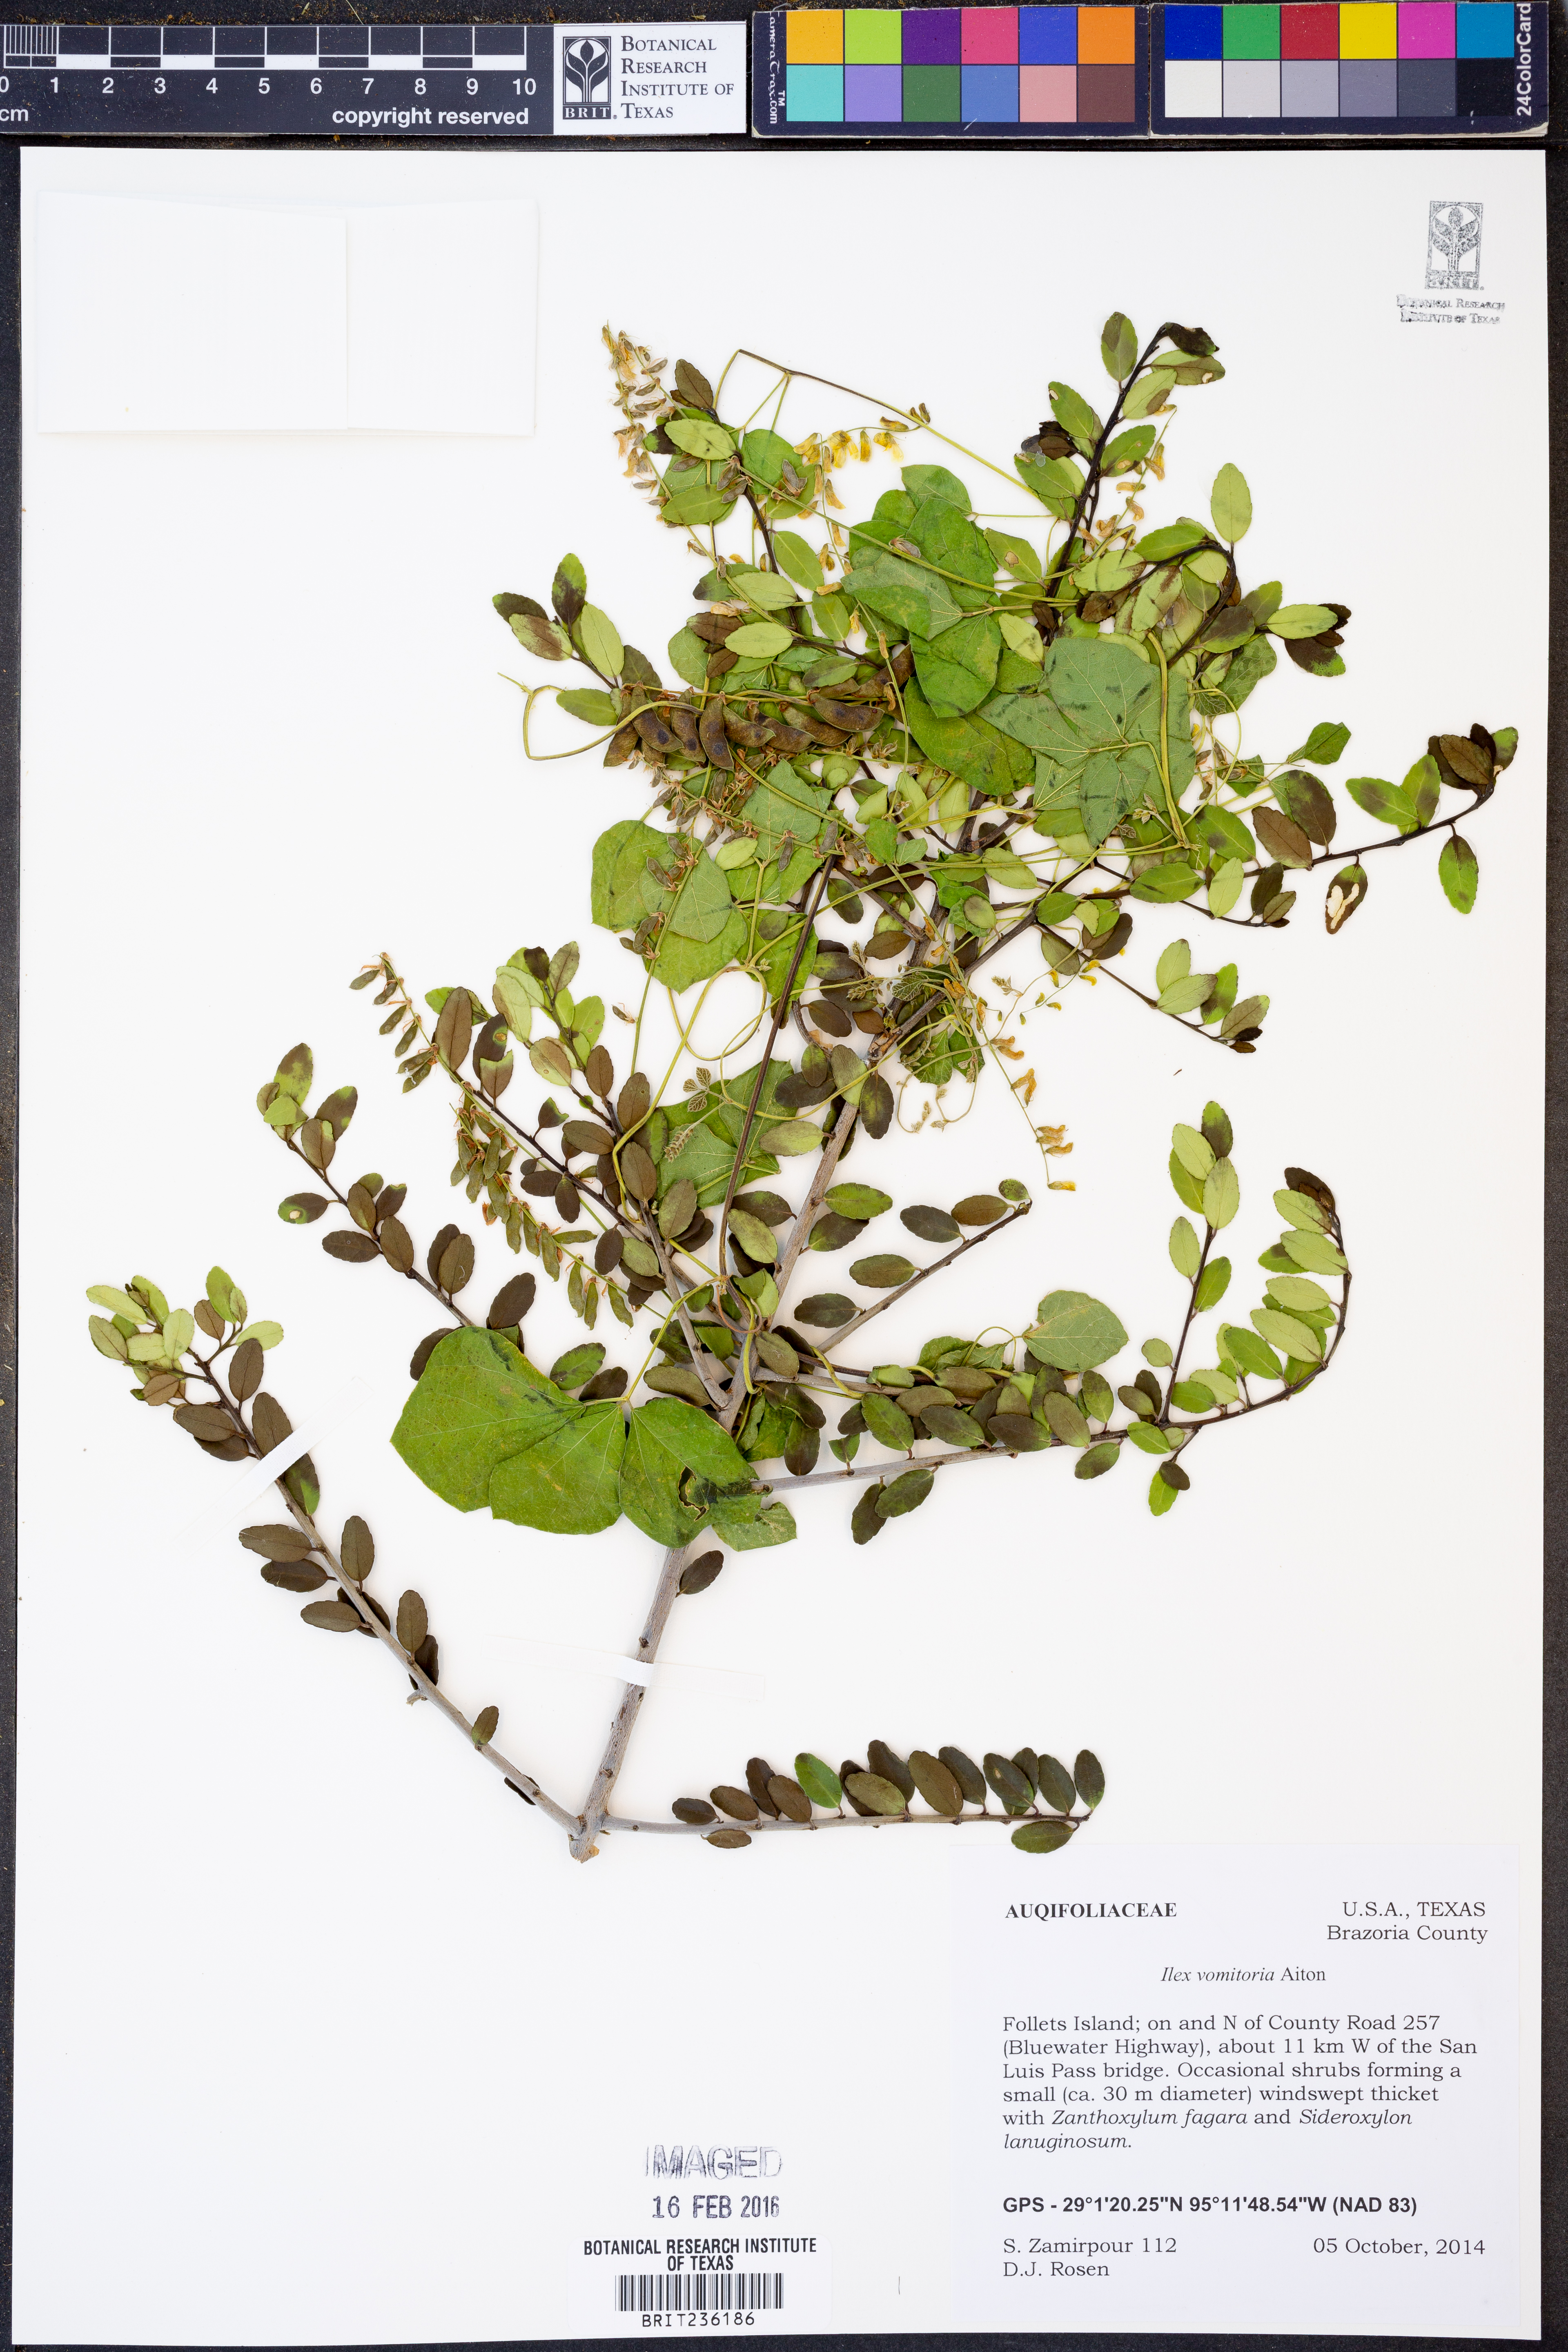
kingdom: Plantae
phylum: Tracheophyta
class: Magnoliopsida
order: Aquifoliales
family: Aquifoliaceae
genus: Ilex
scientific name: Ilex vomitoria
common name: Yaupon holly
